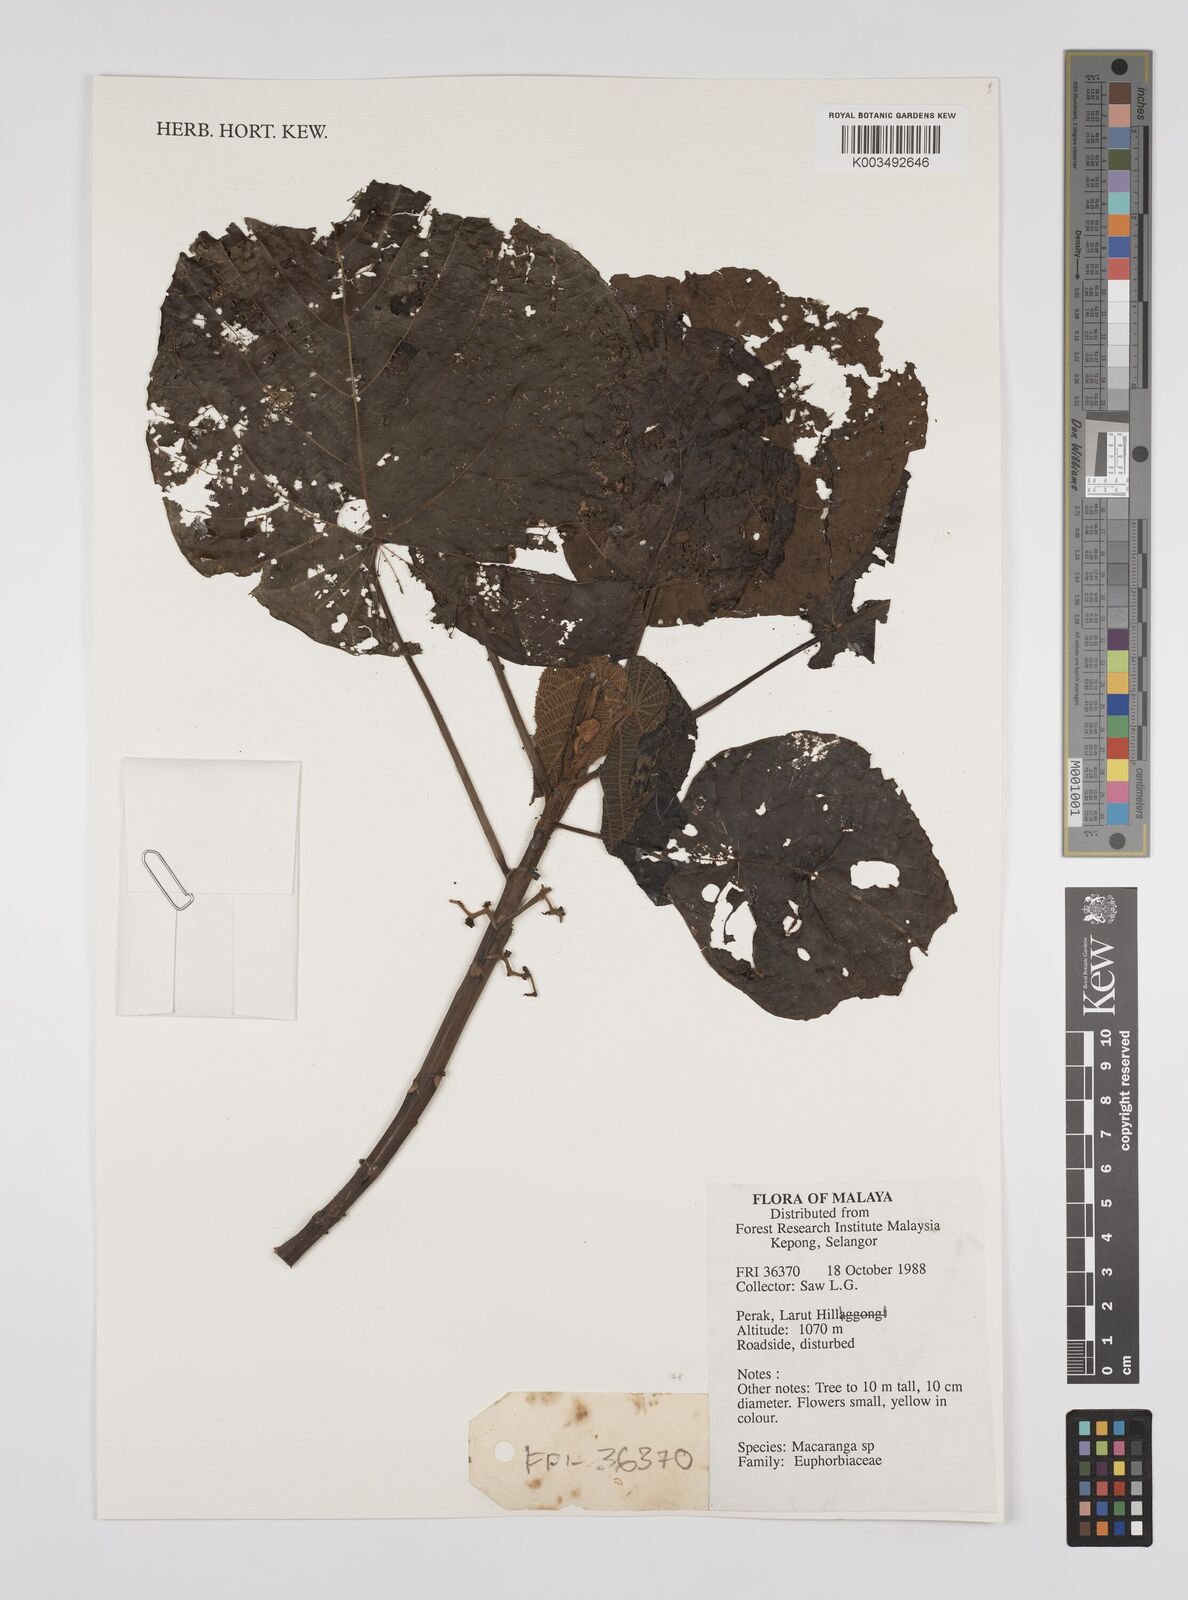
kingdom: Plantae
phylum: Tracheophyta
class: Magnoliopsida
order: Malpighiales
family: Euphorbiaceae
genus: Macaranga
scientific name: Macaranga
